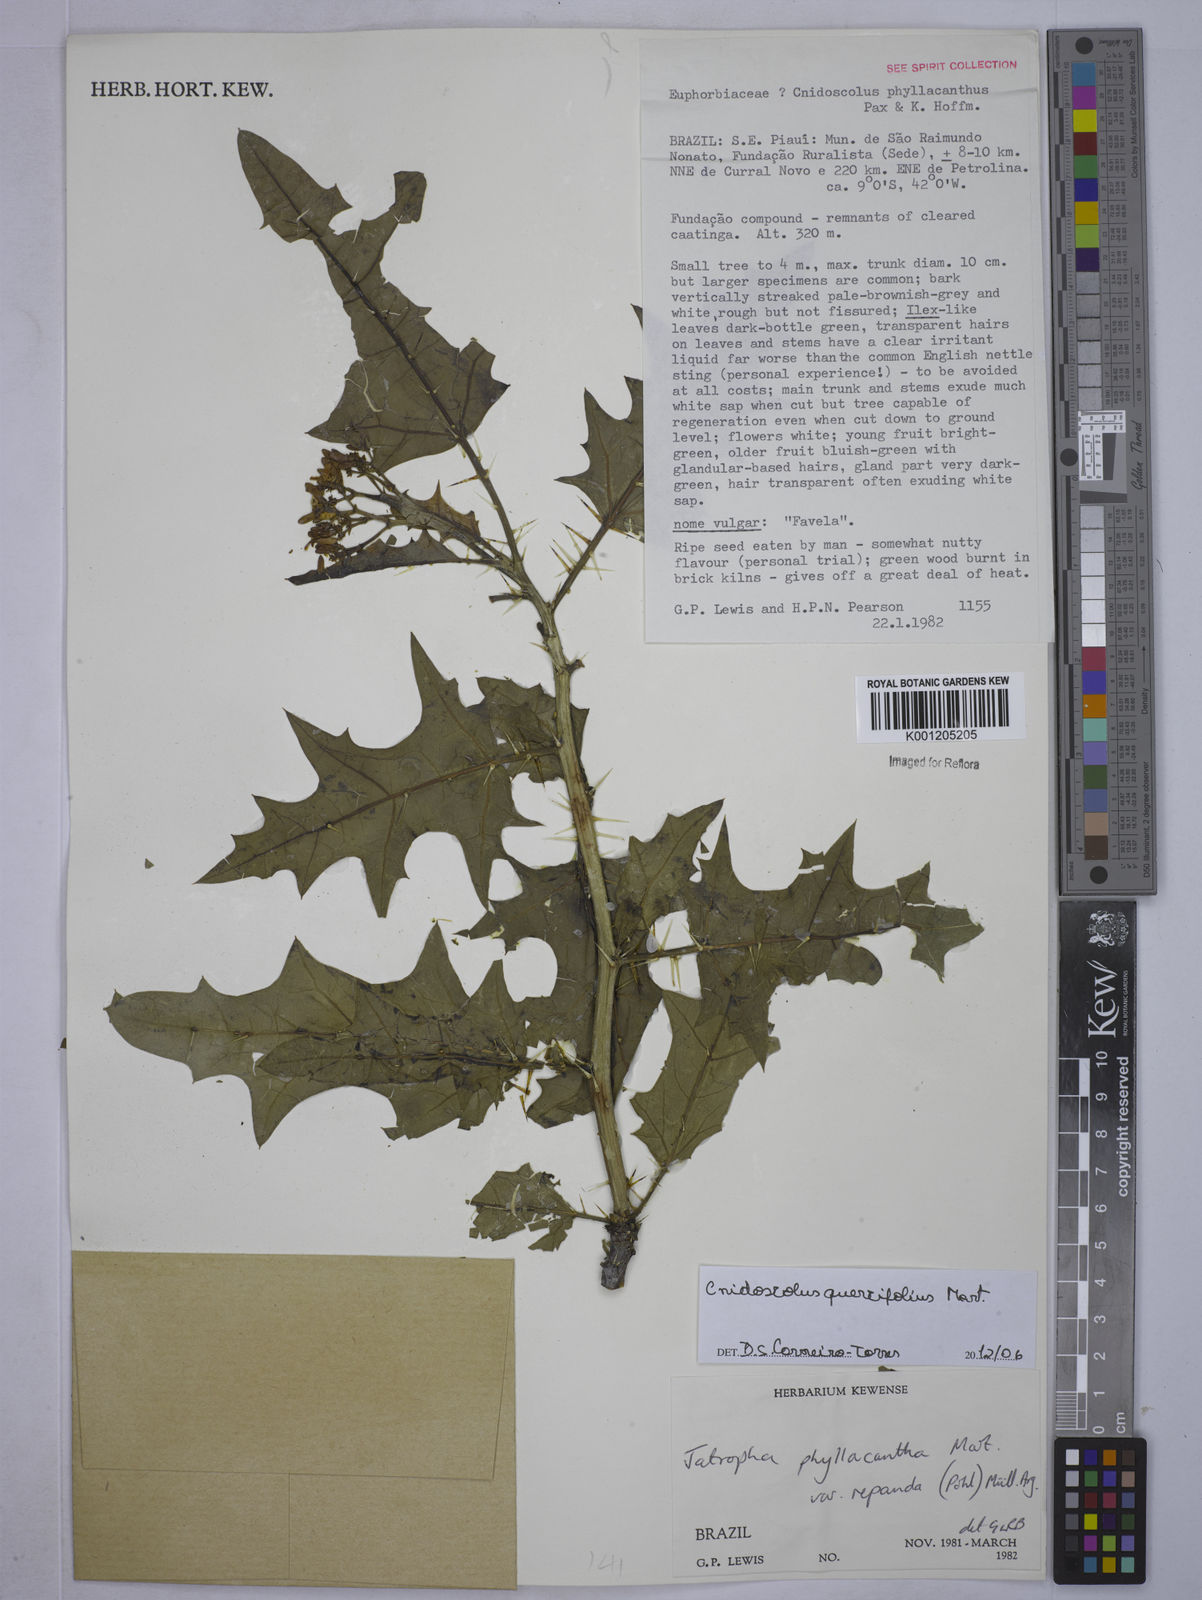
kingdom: Plantae
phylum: Tracheophyta
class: Magnoliopsida
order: Malpighiales
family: Euphorbiaceae
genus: Cnidoscolus
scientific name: Cnidoscolus quercifolius
